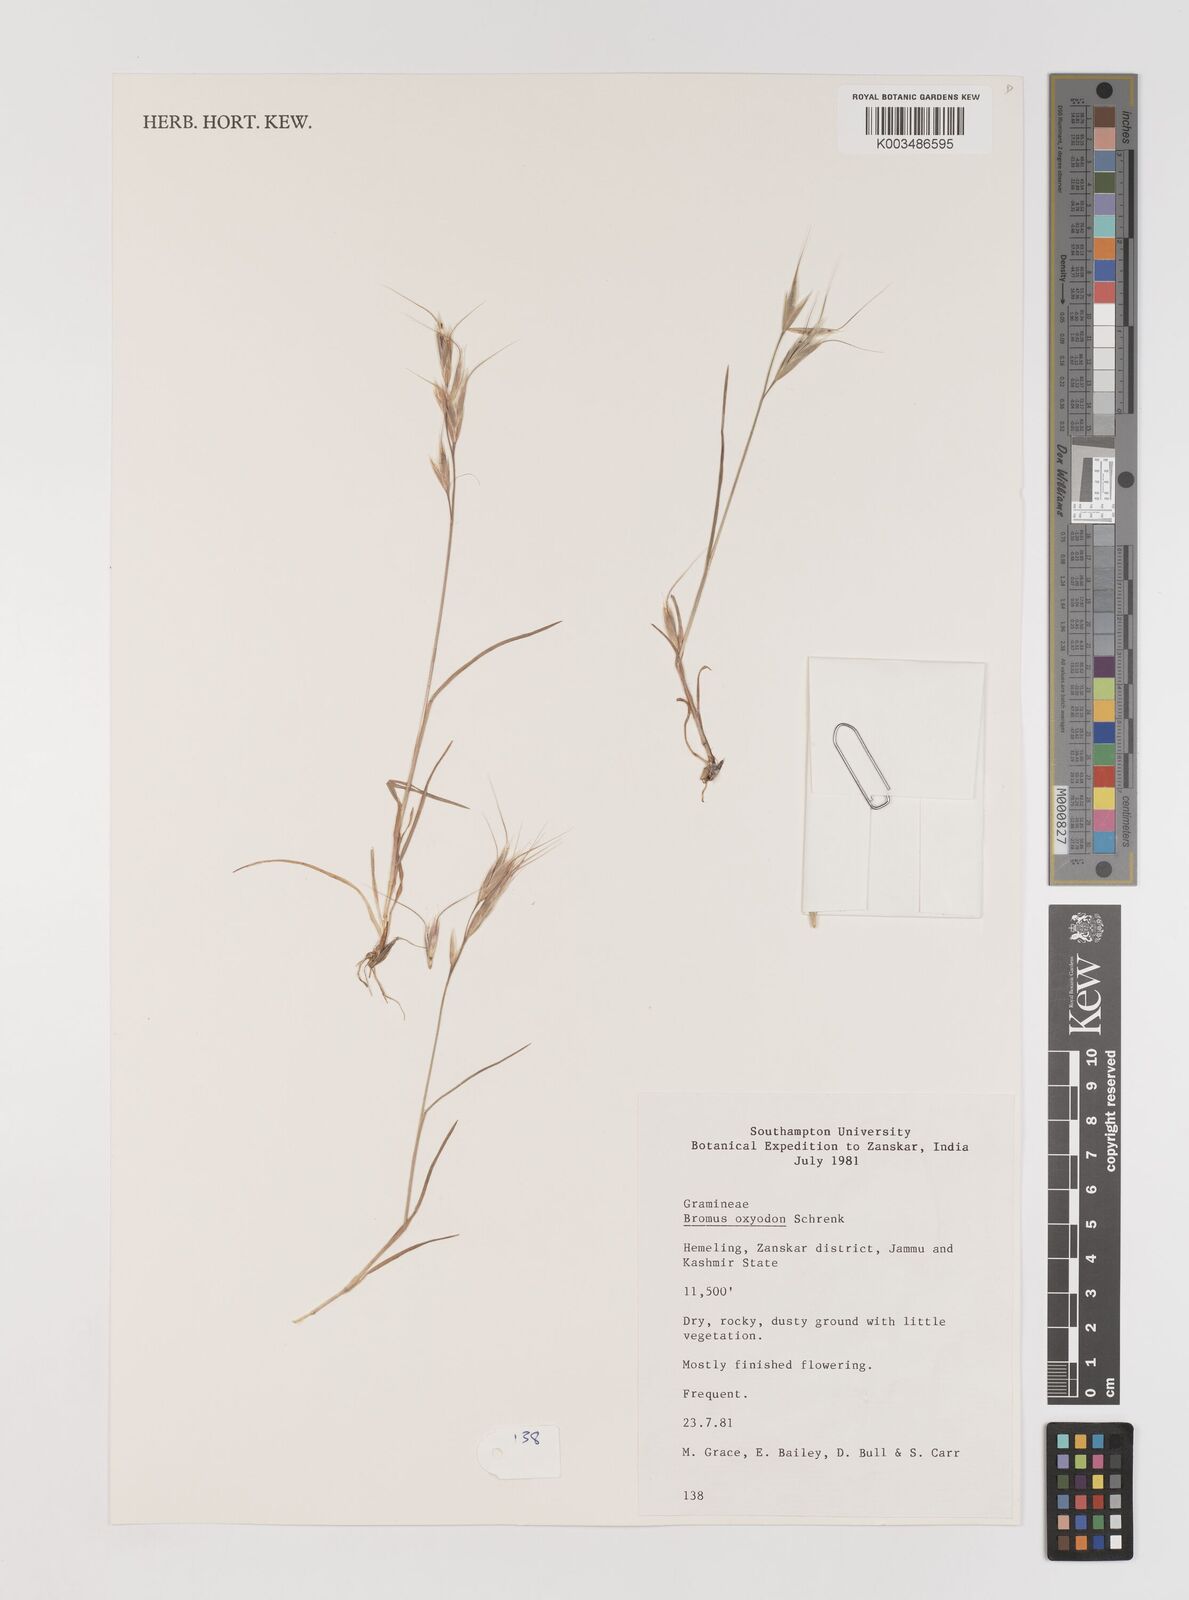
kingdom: Plantae
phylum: Tracheophyta
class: Liliopsida
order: Poales
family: Poaceae
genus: Bromus
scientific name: Bromus oxyodon
